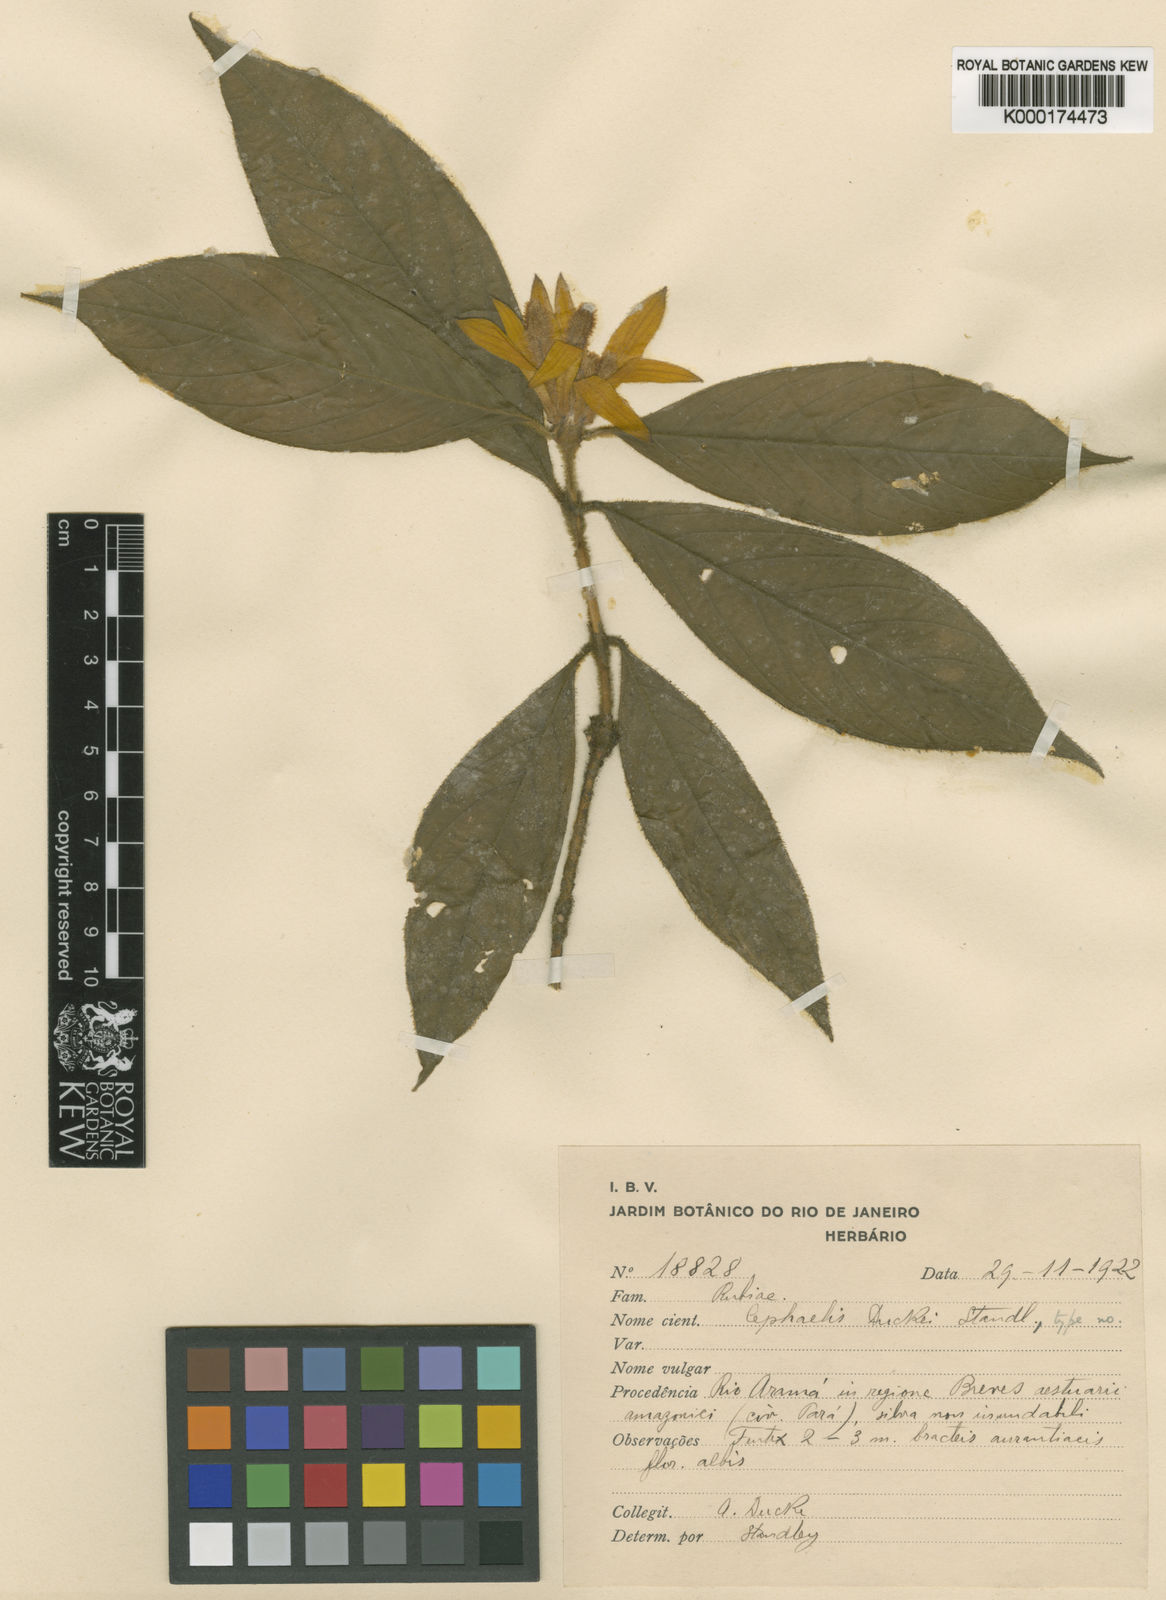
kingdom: Plantae
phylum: Tracheophyta
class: Magnoliopsida
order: Gentianales
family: Rubiaceae
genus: Palicourea
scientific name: Palicourea spectabilis
